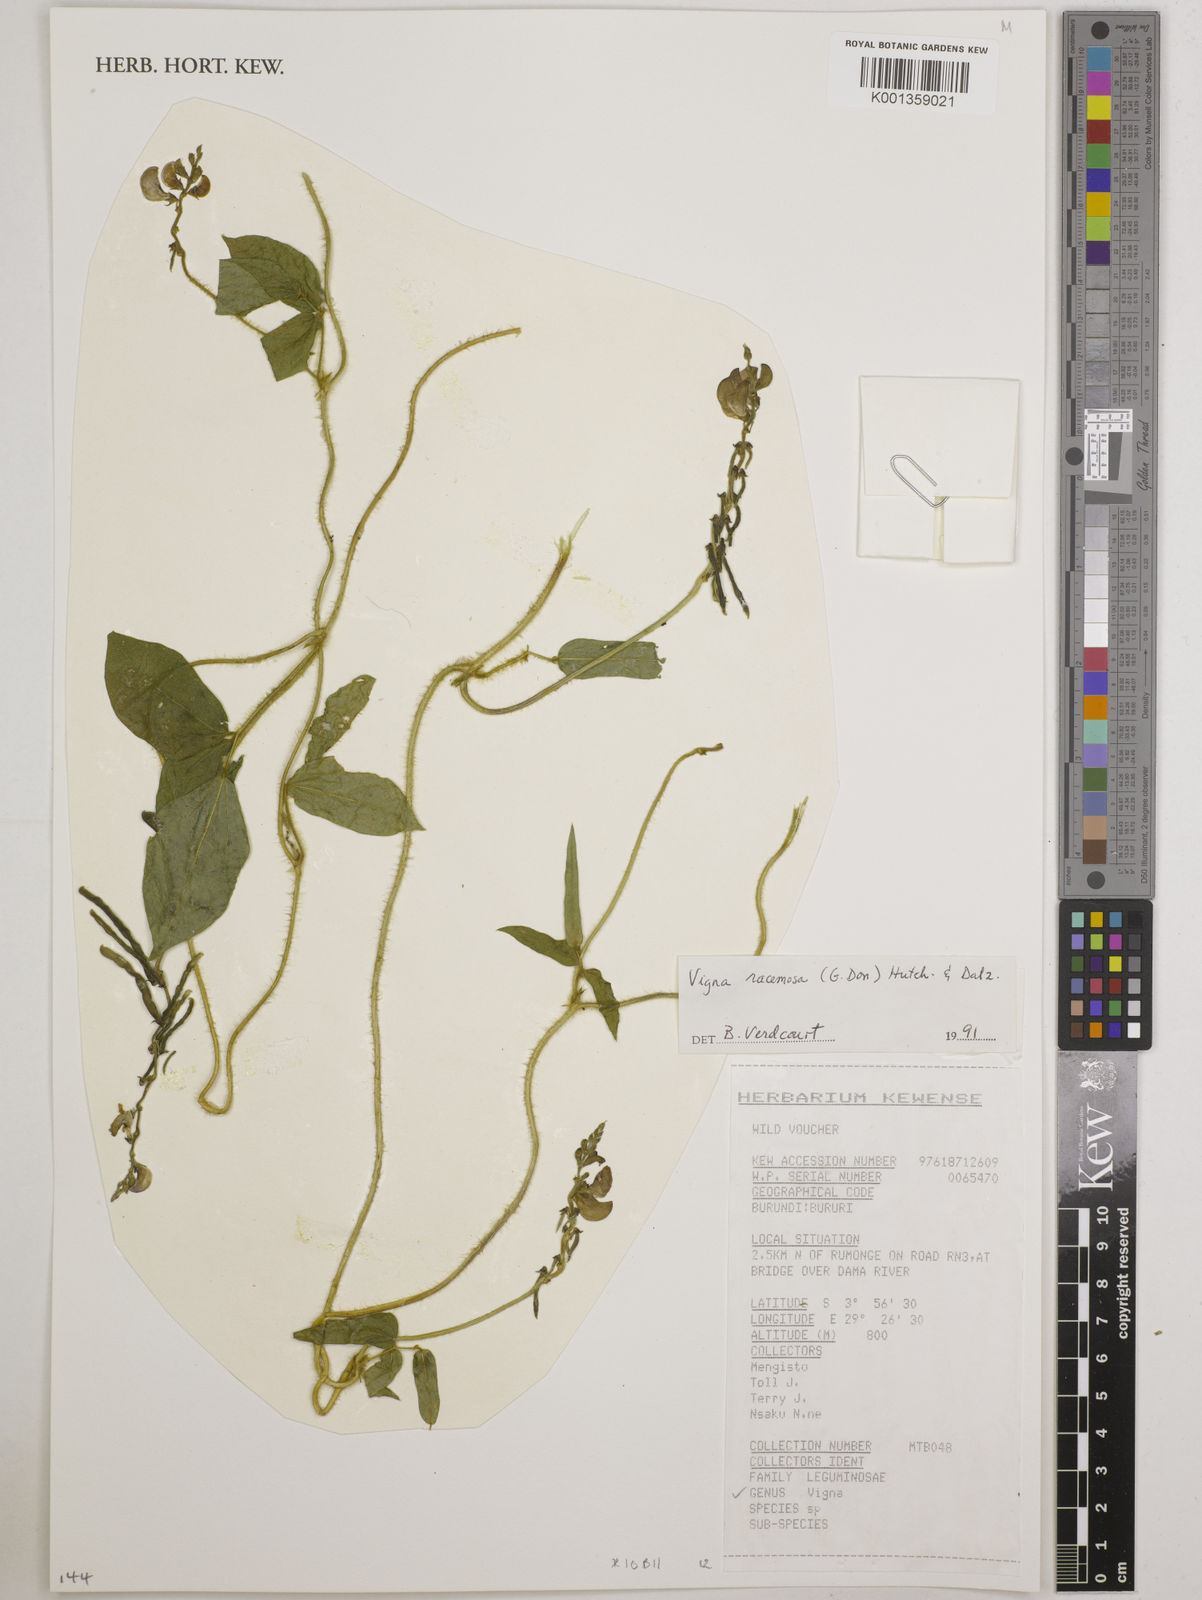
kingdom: Plantae
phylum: Tracheophyta
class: Magnoliopsida
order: Fabales
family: Fabaceae
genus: Vigna
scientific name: Vigna racemosa
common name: Beans not eaten
